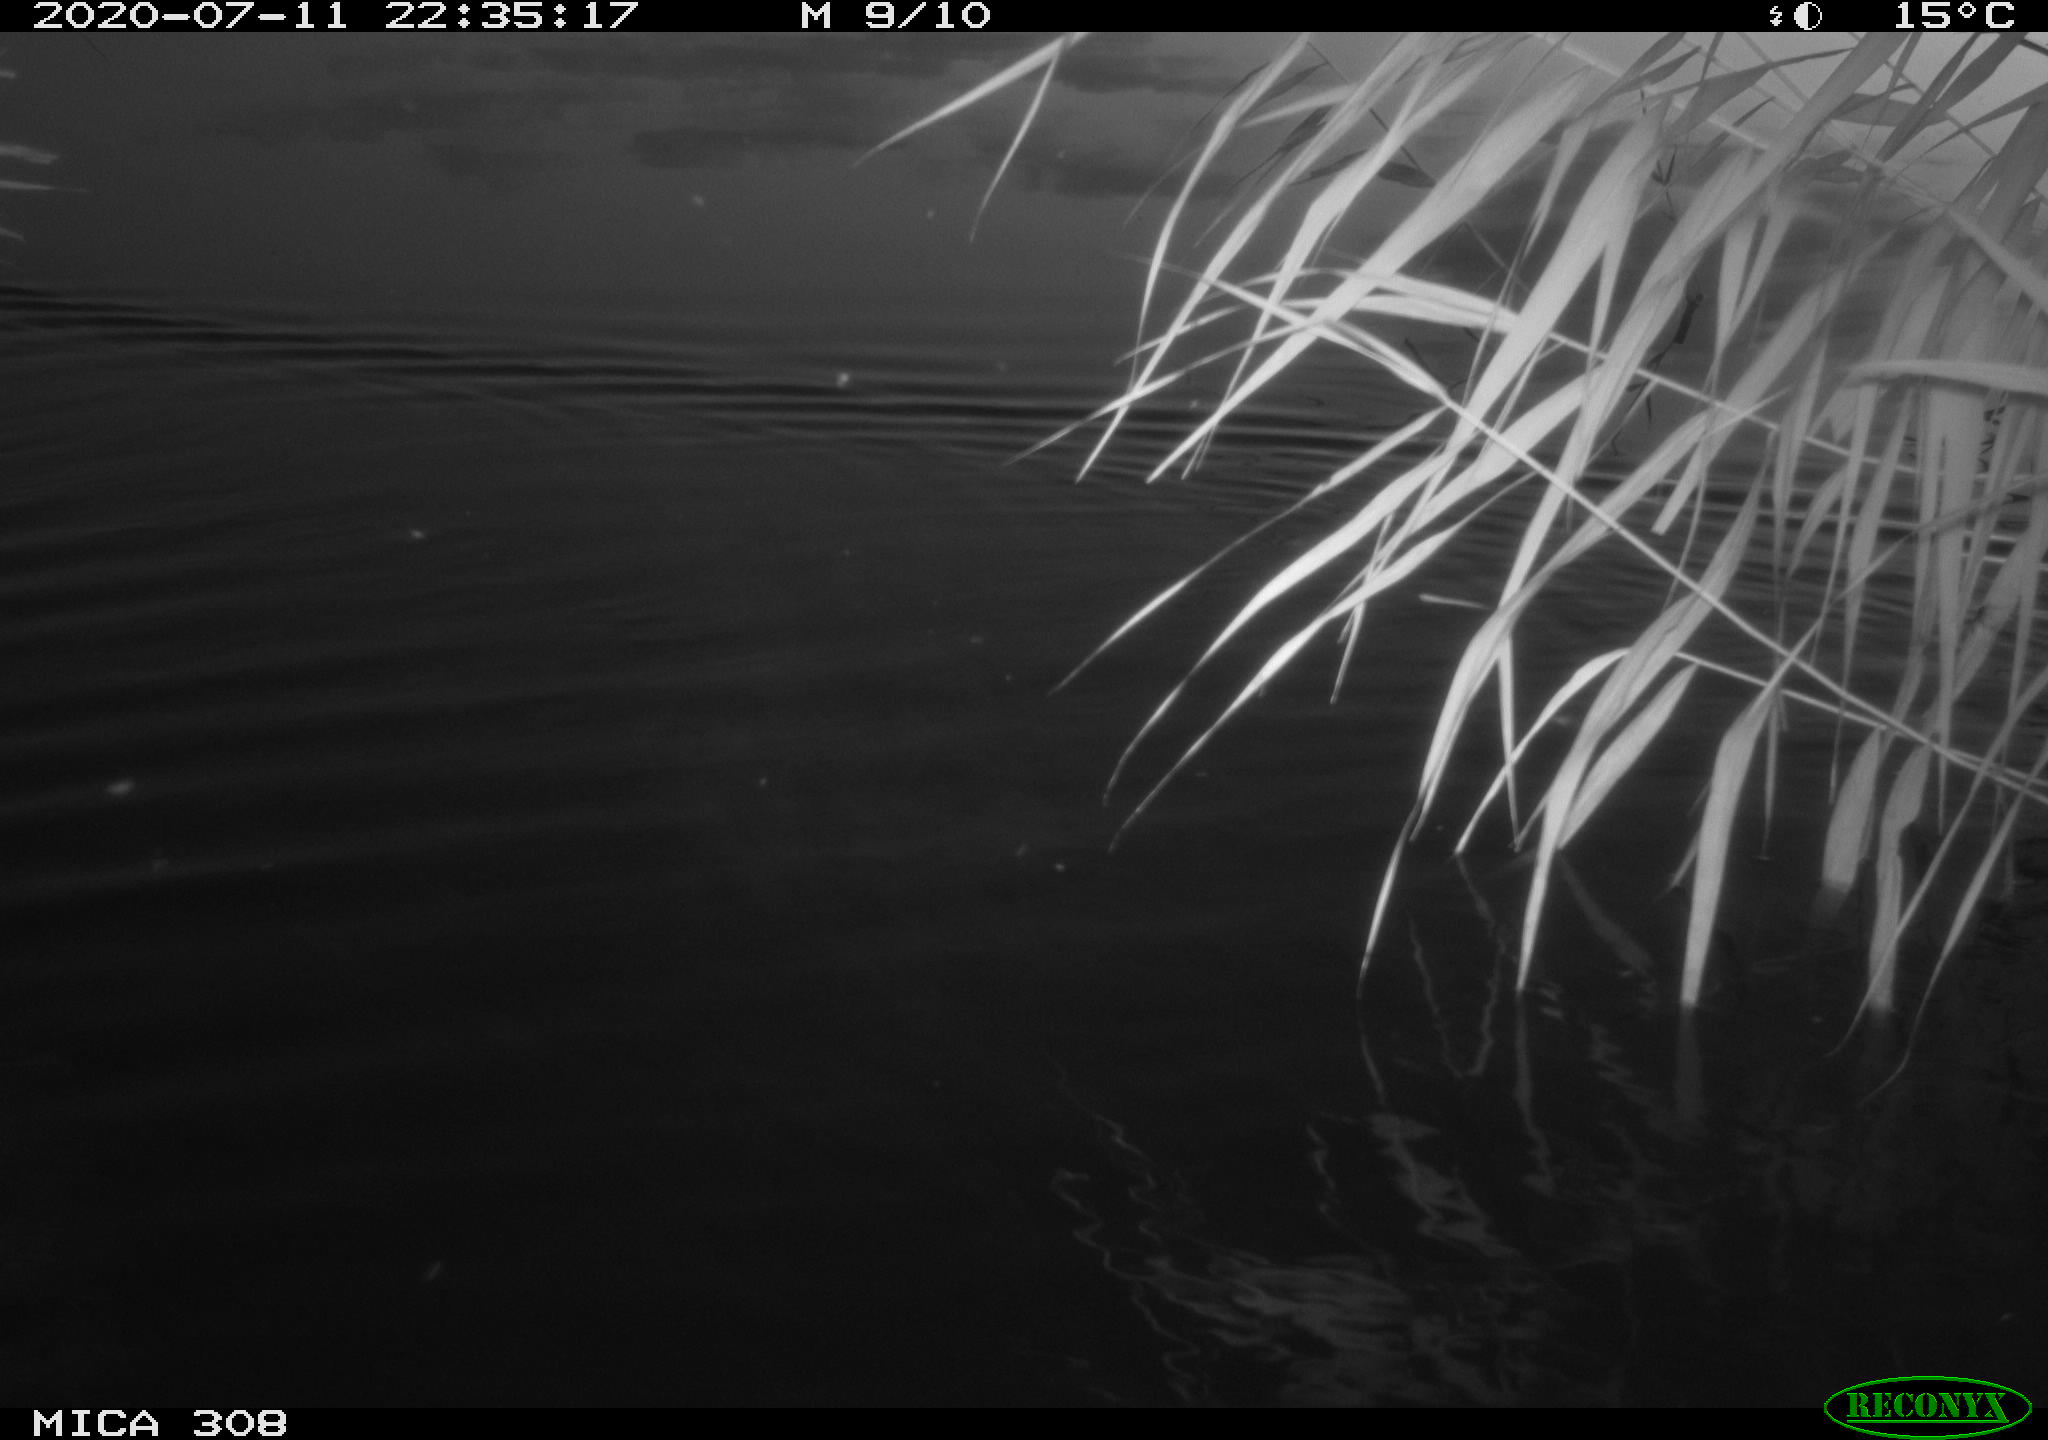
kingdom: Animalia
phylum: Chordata
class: Mammalia
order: Rodentia
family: Muridae
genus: Rattus
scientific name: Rattus norvegicus
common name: Brown rat
